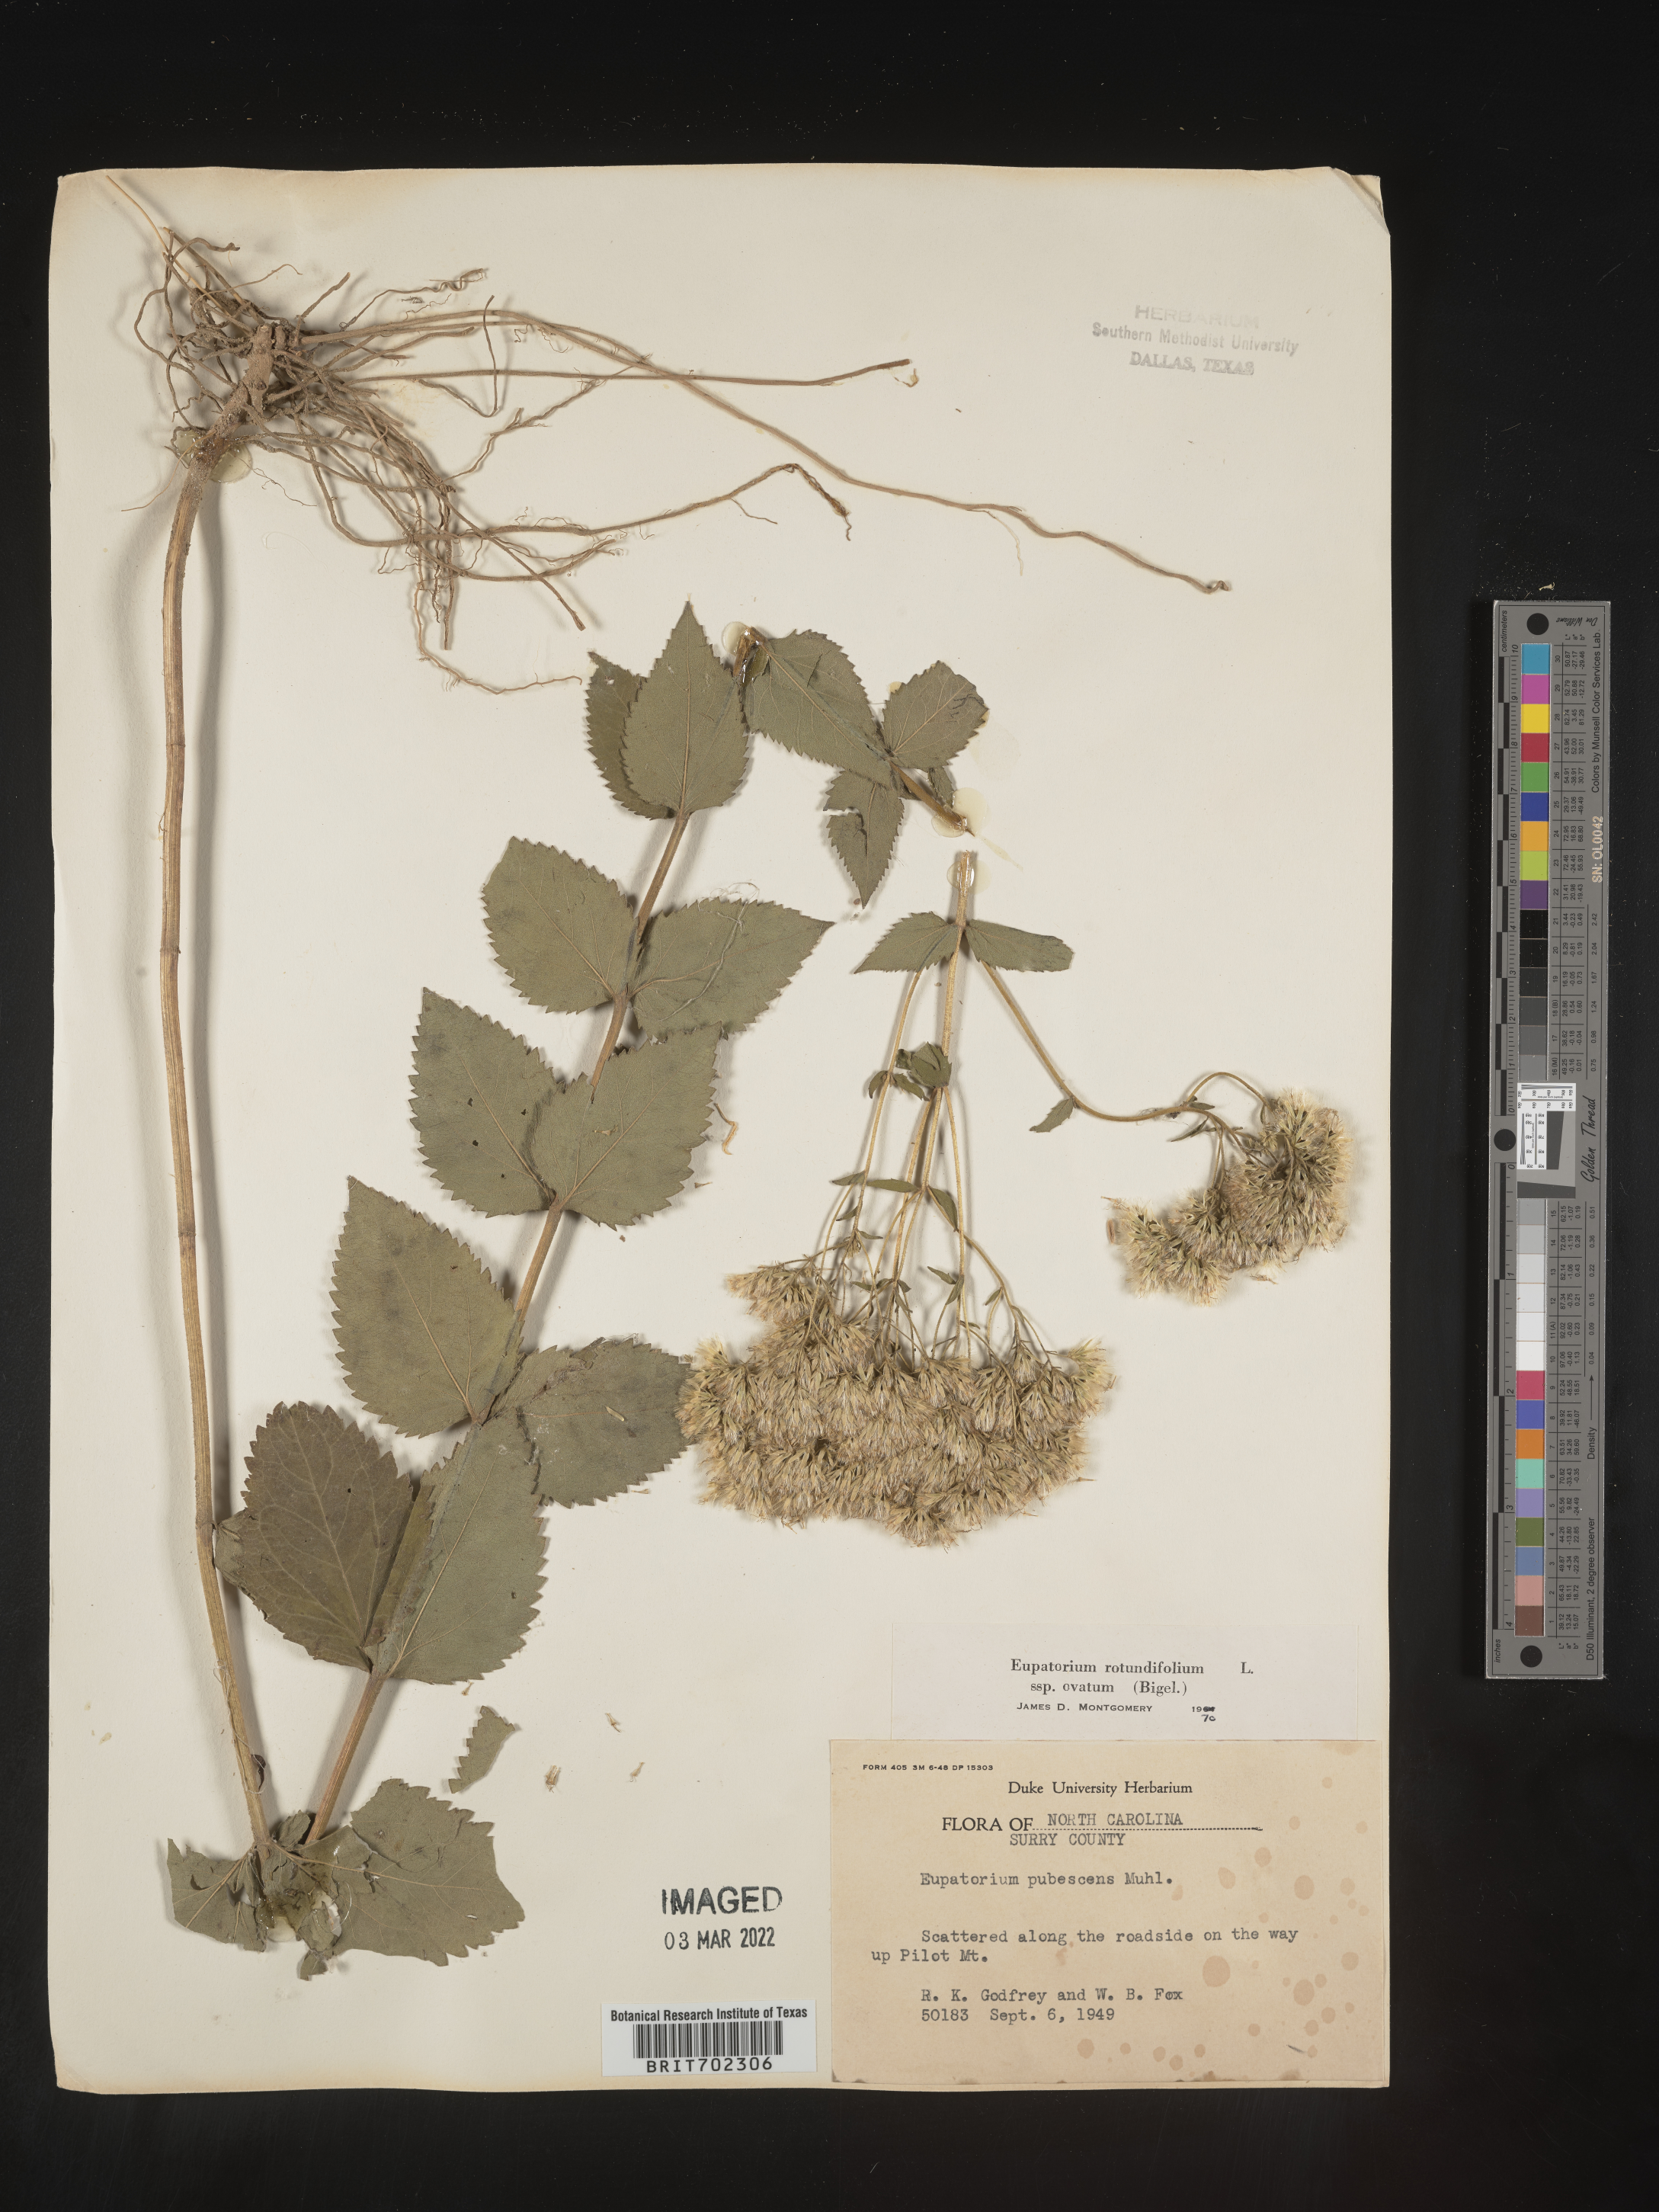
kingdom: Plantae
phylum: Tracheophyta
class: Magnoliopsida
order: Asterales
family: Asteraceae
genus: Eupatorium
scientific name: Eupatorium rotundifolium
